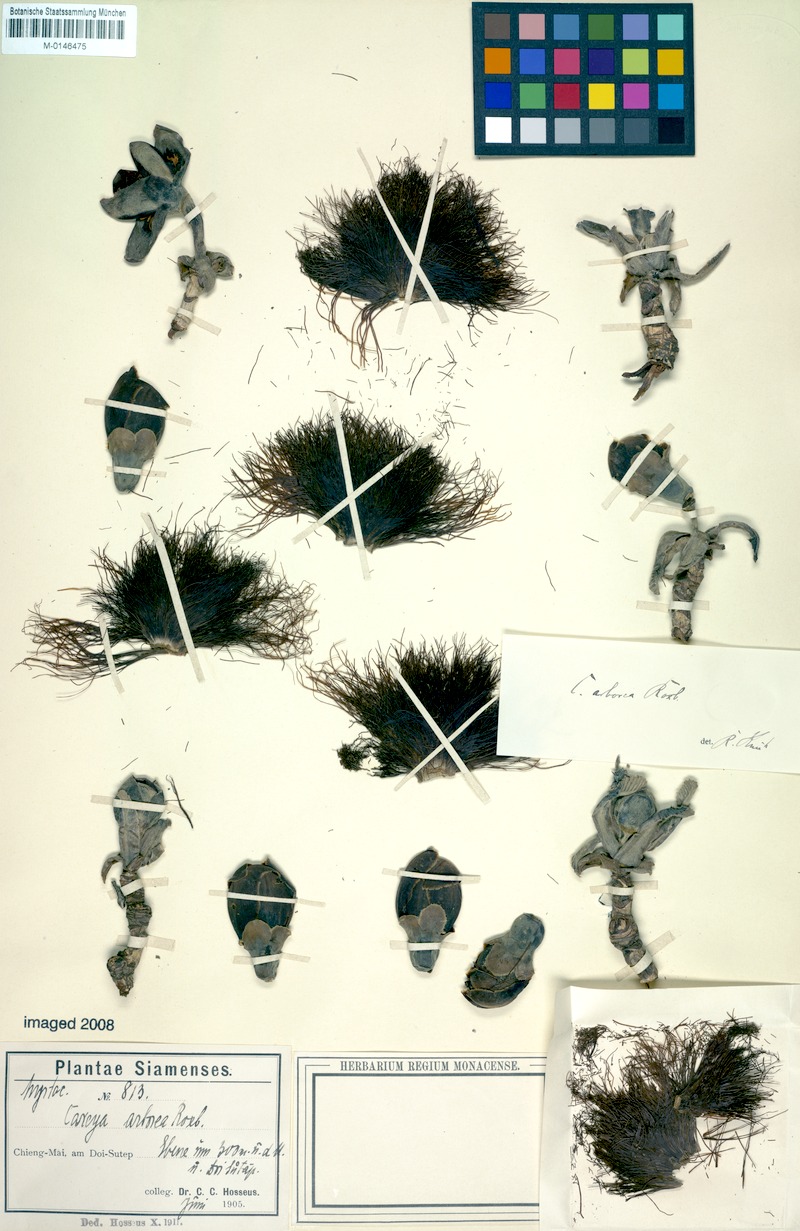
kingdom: Plantae
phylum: Tracheophyta
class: Magnoliopsida
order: Ericales
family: Lecythidaceae
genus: Careya
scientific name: Careya arborea
